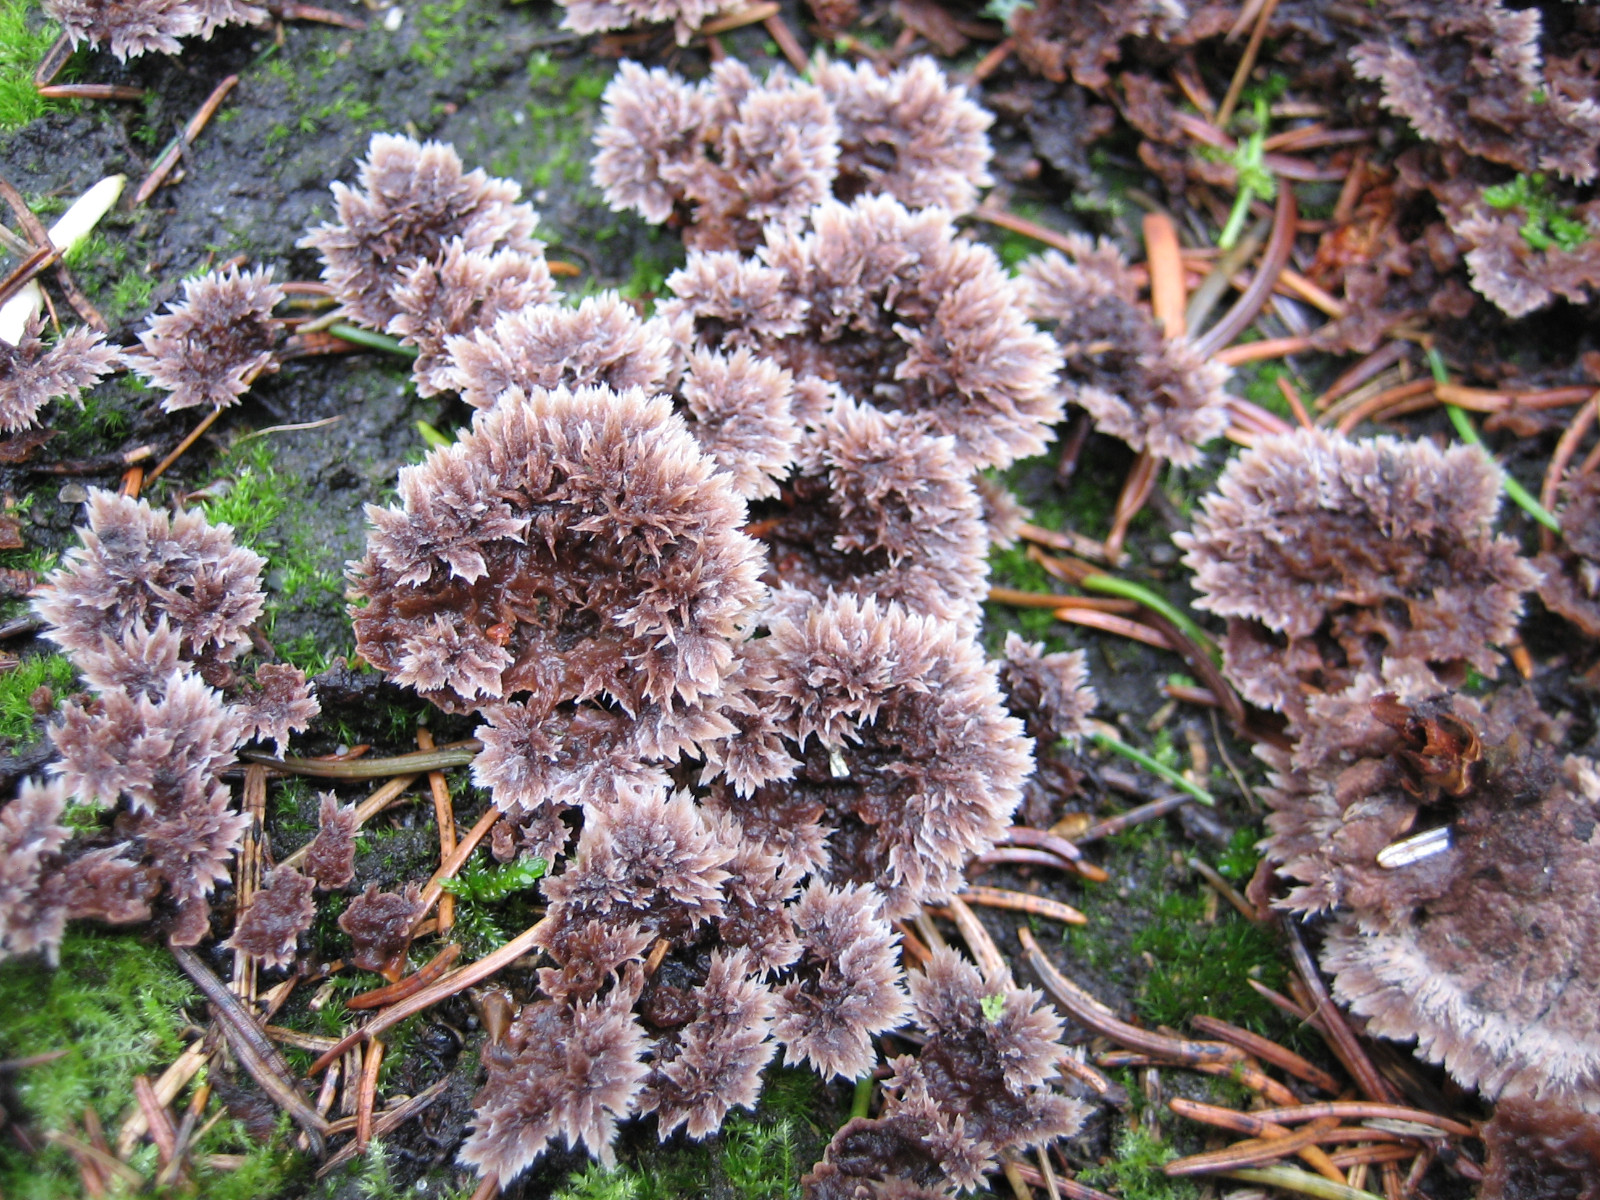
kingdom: Fungi
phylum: Basidiomycota
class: Agaricomycetes
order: Thelephorales
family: Thelephoraceae
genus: Thelephora
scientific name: Thelephora terrestris
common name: fliget frynsesvamp
